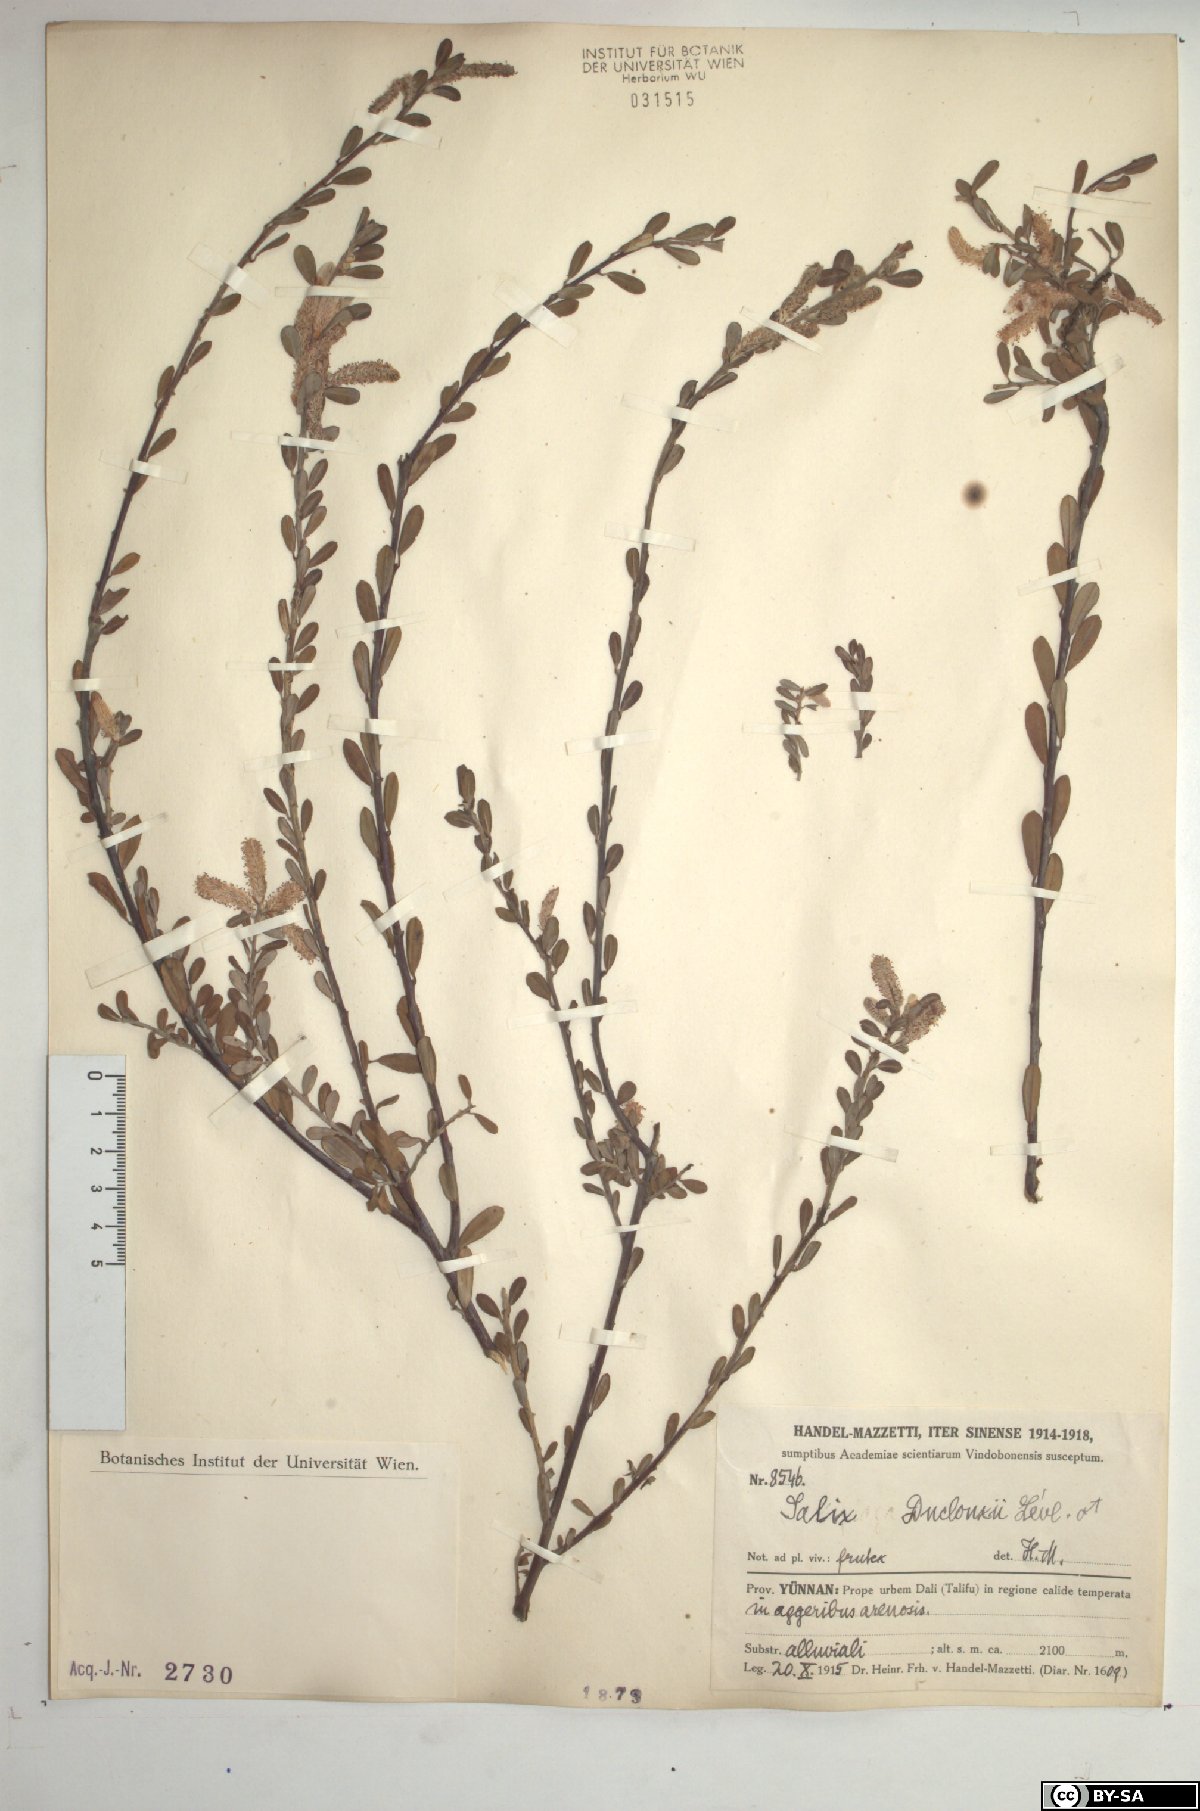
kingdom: Plantae
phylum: Tracheophyta
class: Magnoliopsida
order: Malpighiales
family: Salicaceae
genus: Salix
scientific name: Salix variegata
